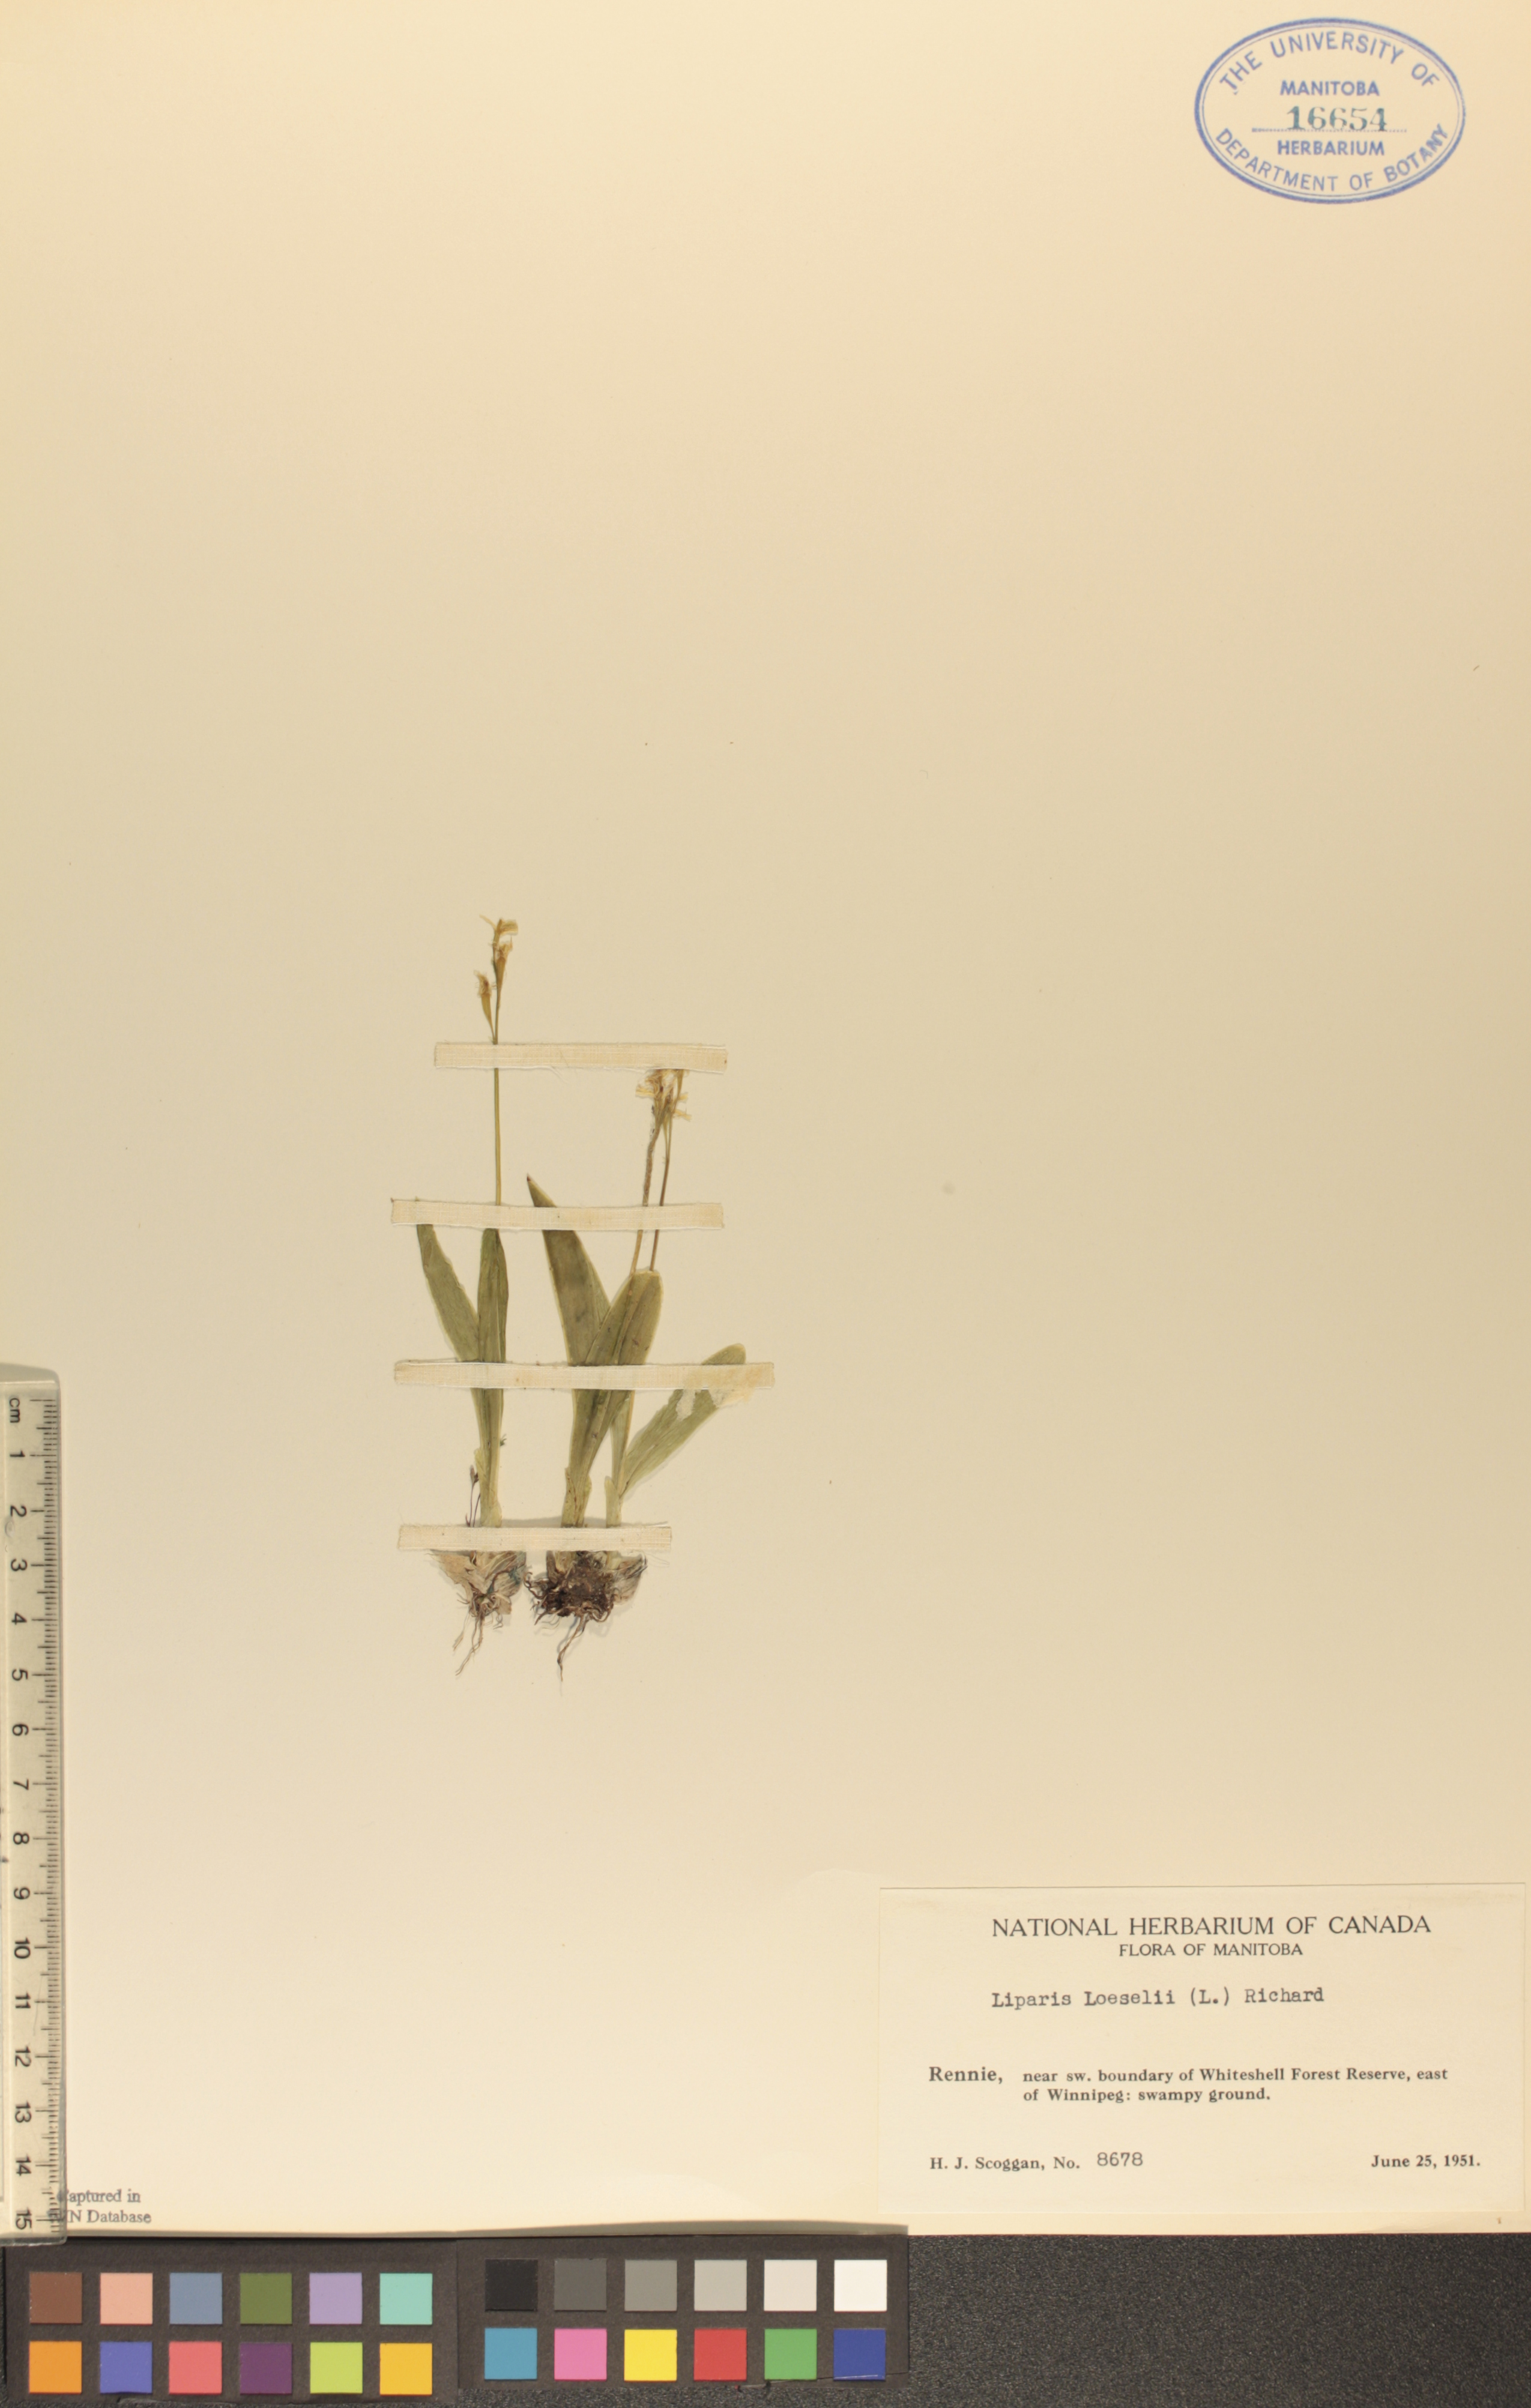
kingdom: Animalia
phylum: Arthropoda
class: Insecta
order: Coleoptera
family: Curculionidae
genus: Liparis
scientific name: Liparis loeselii
